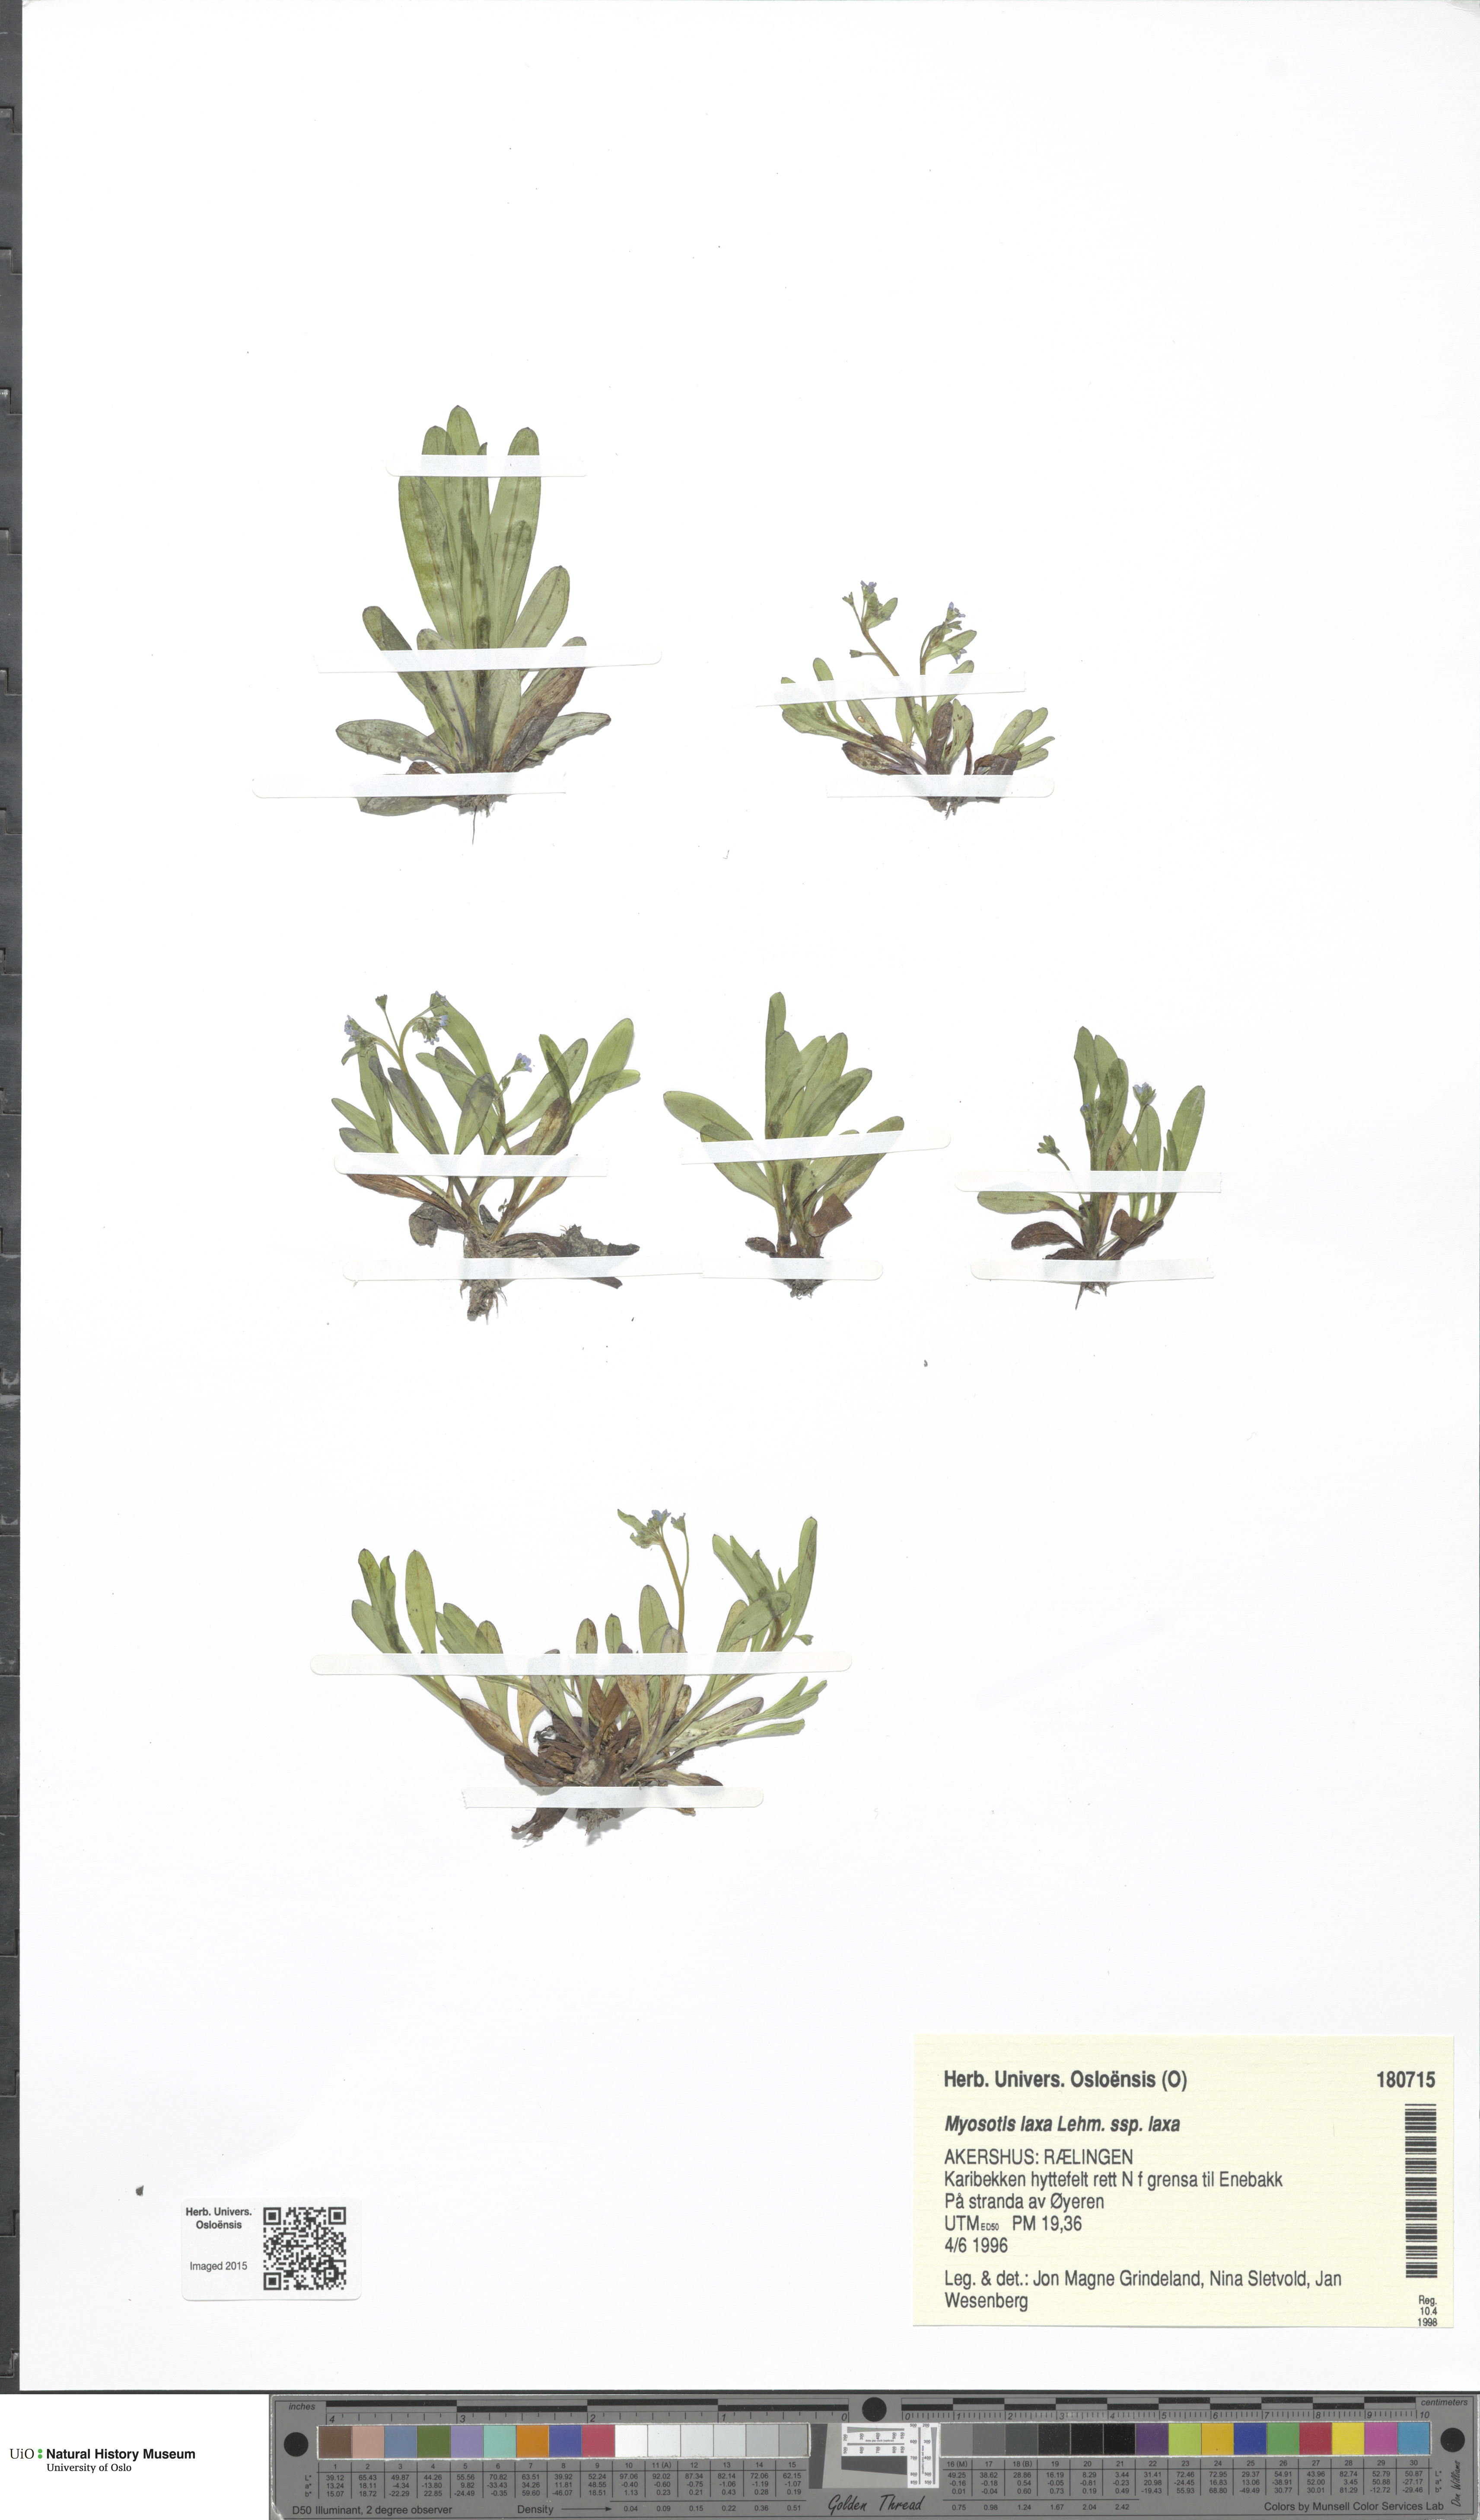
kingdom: Plantae
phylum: Tracheophyta
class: Magnoliopsida
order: Boraginales
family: Boraginaceae
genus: Myosotis
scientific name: Myosotis laxa
